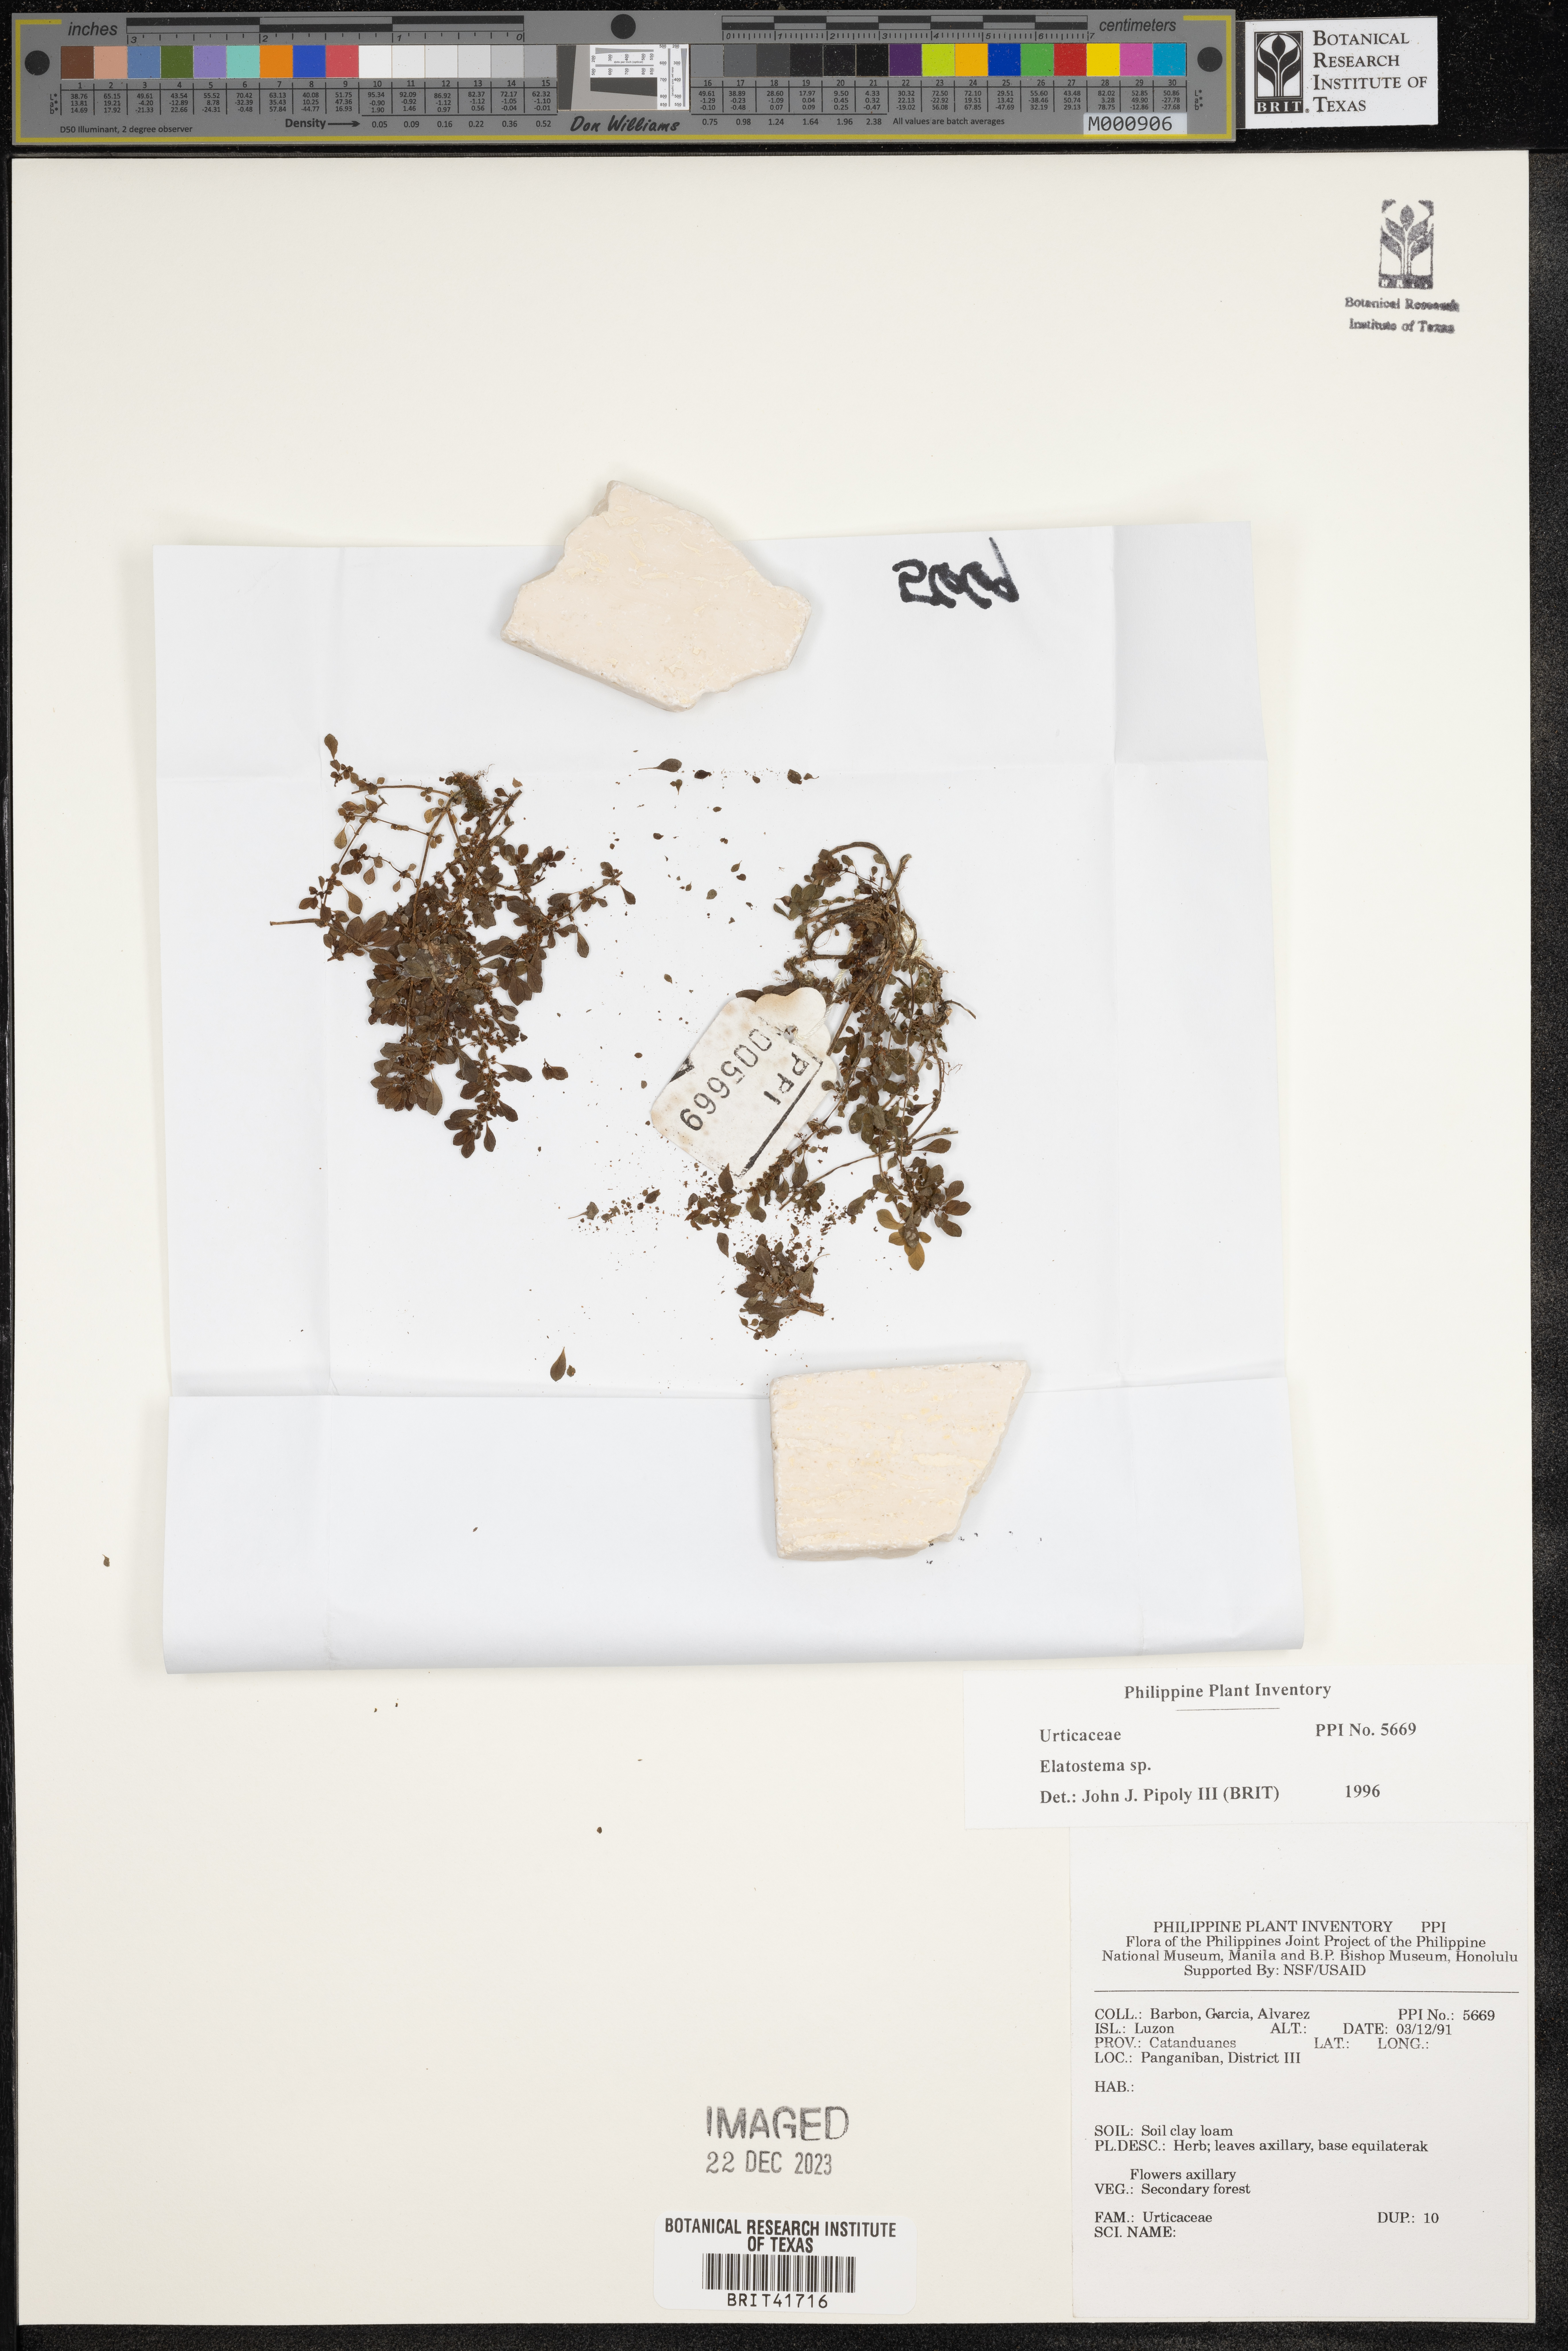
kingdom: Plantae
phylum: Tracheophyta
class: Magnoliopsida
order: Rosales
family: Urticaceae
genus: Elatostema
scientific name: Elatostema
